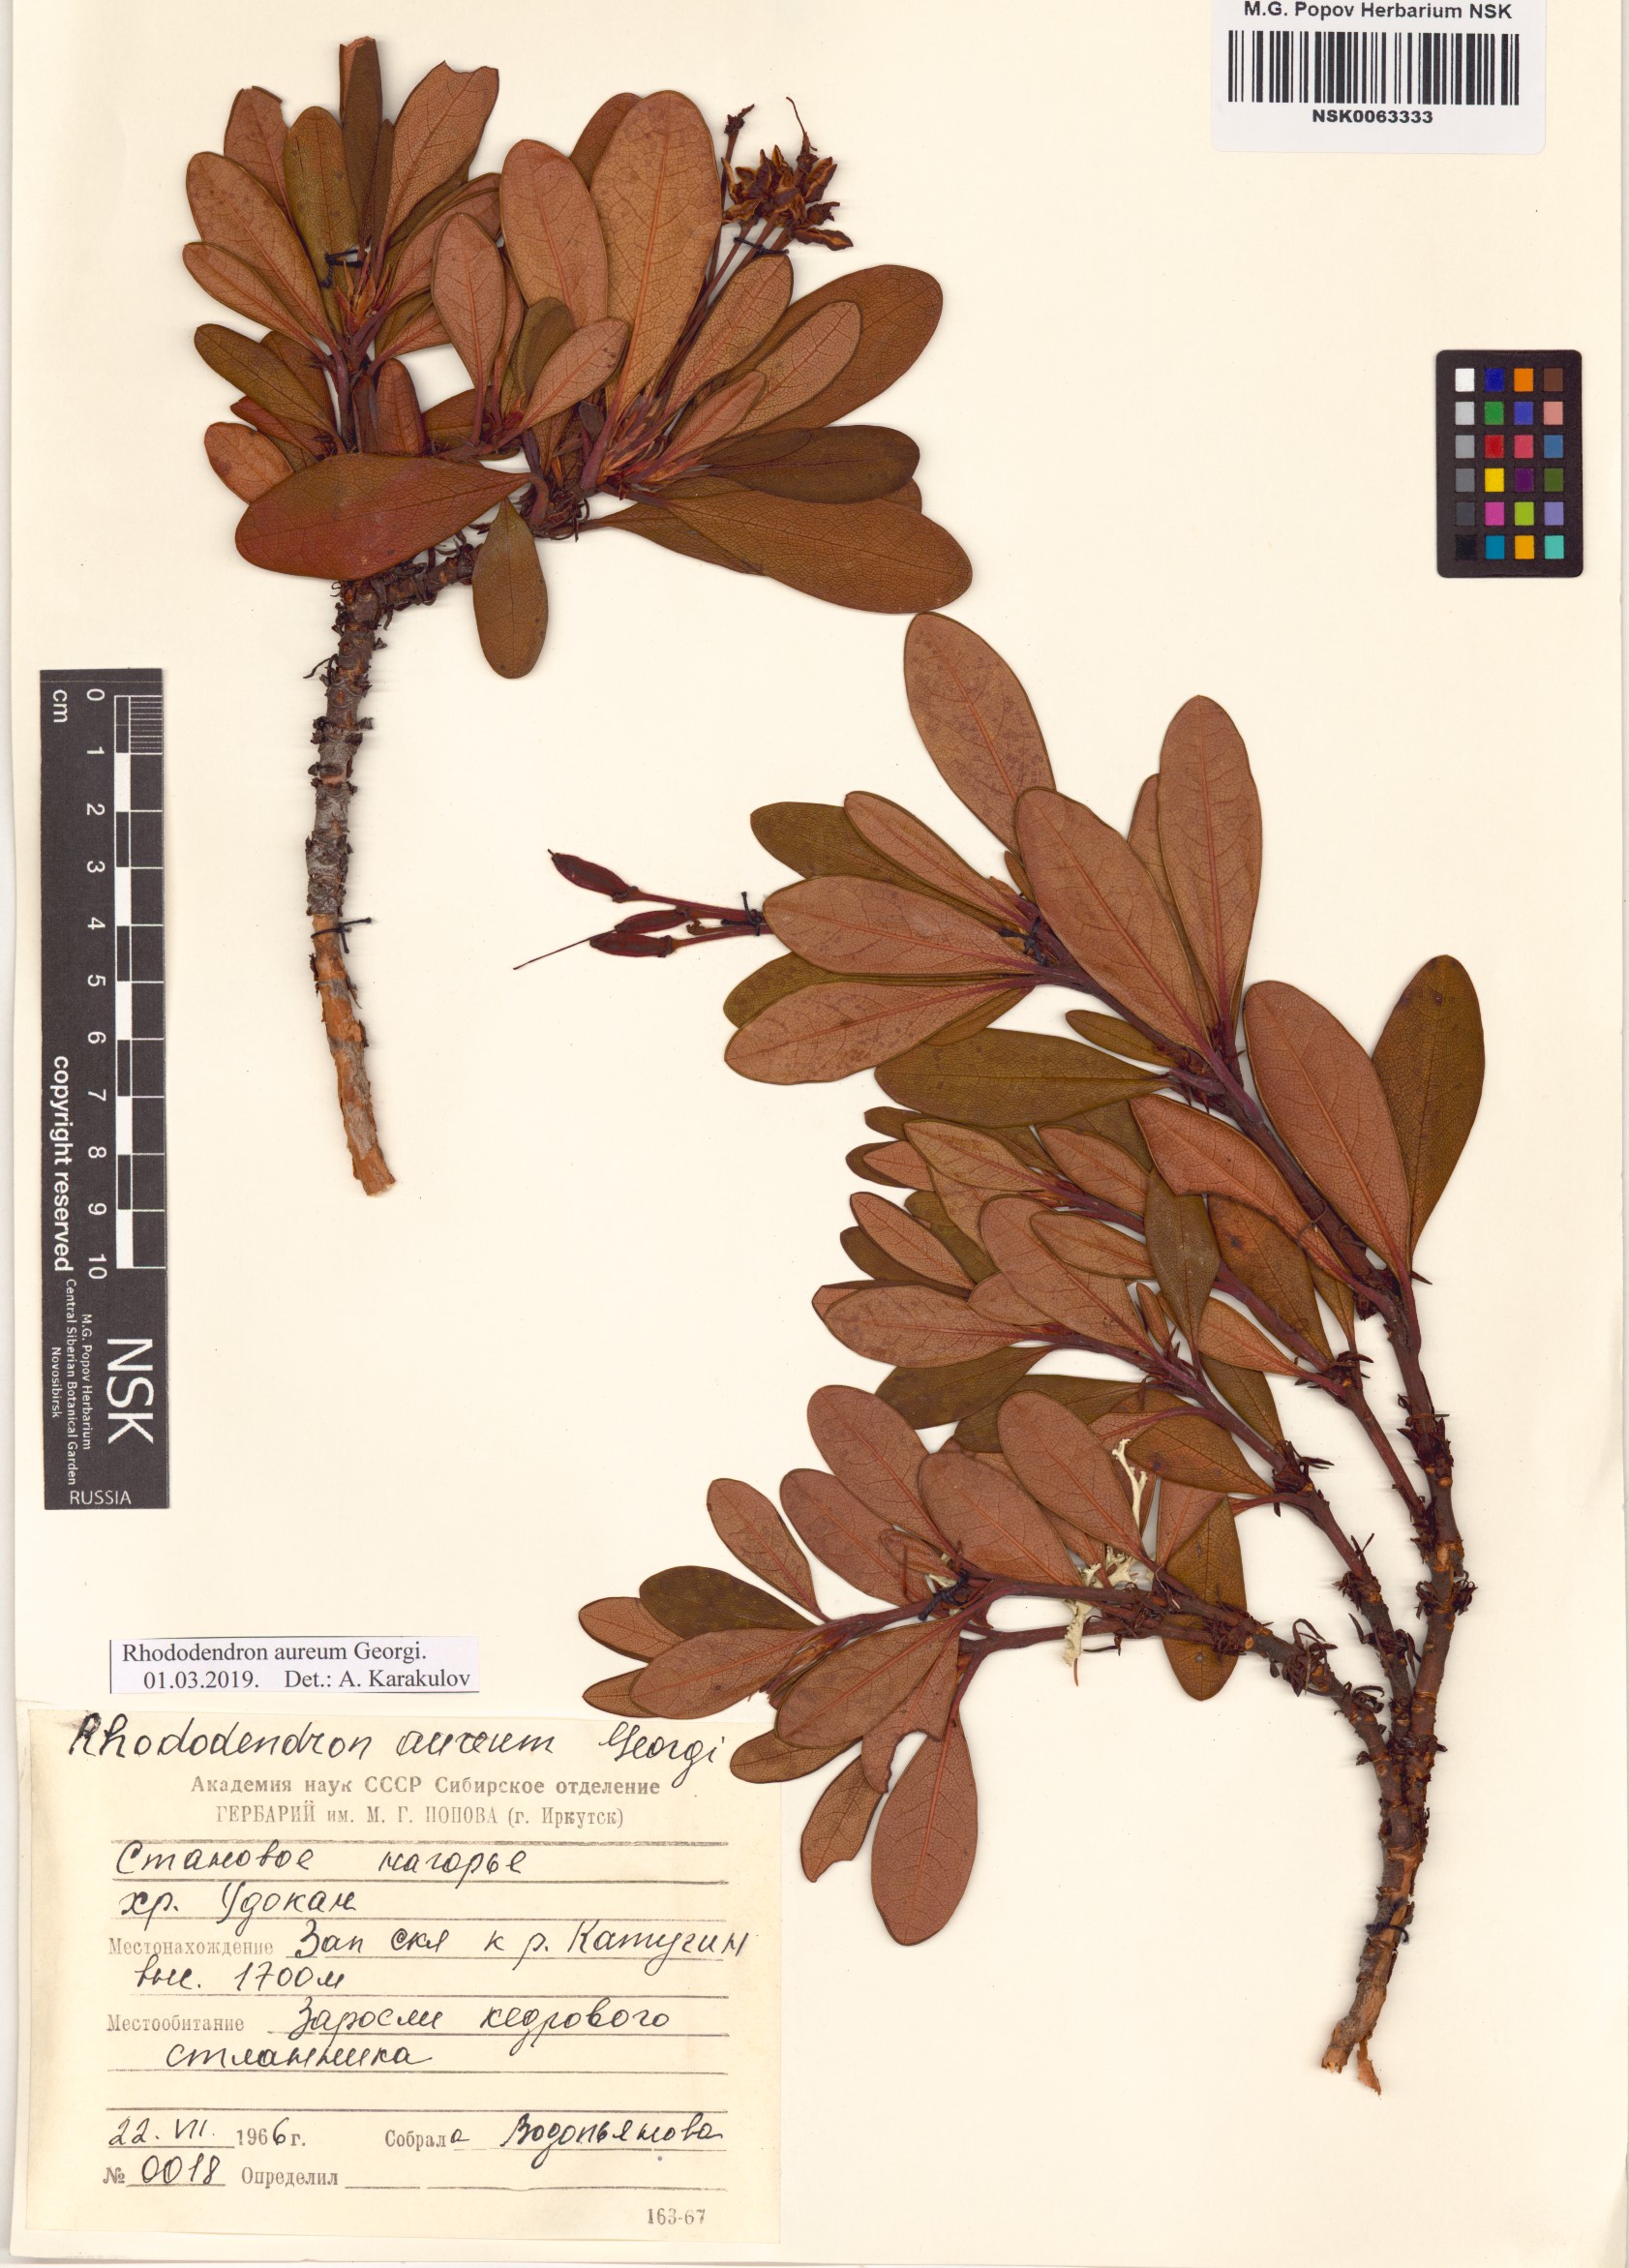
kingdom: Plantae
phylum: Tracheophyta
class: Magnoliopsida
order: Ericales
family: Ericaceae
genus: Rhododendron
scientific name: Rhododendron aureum
